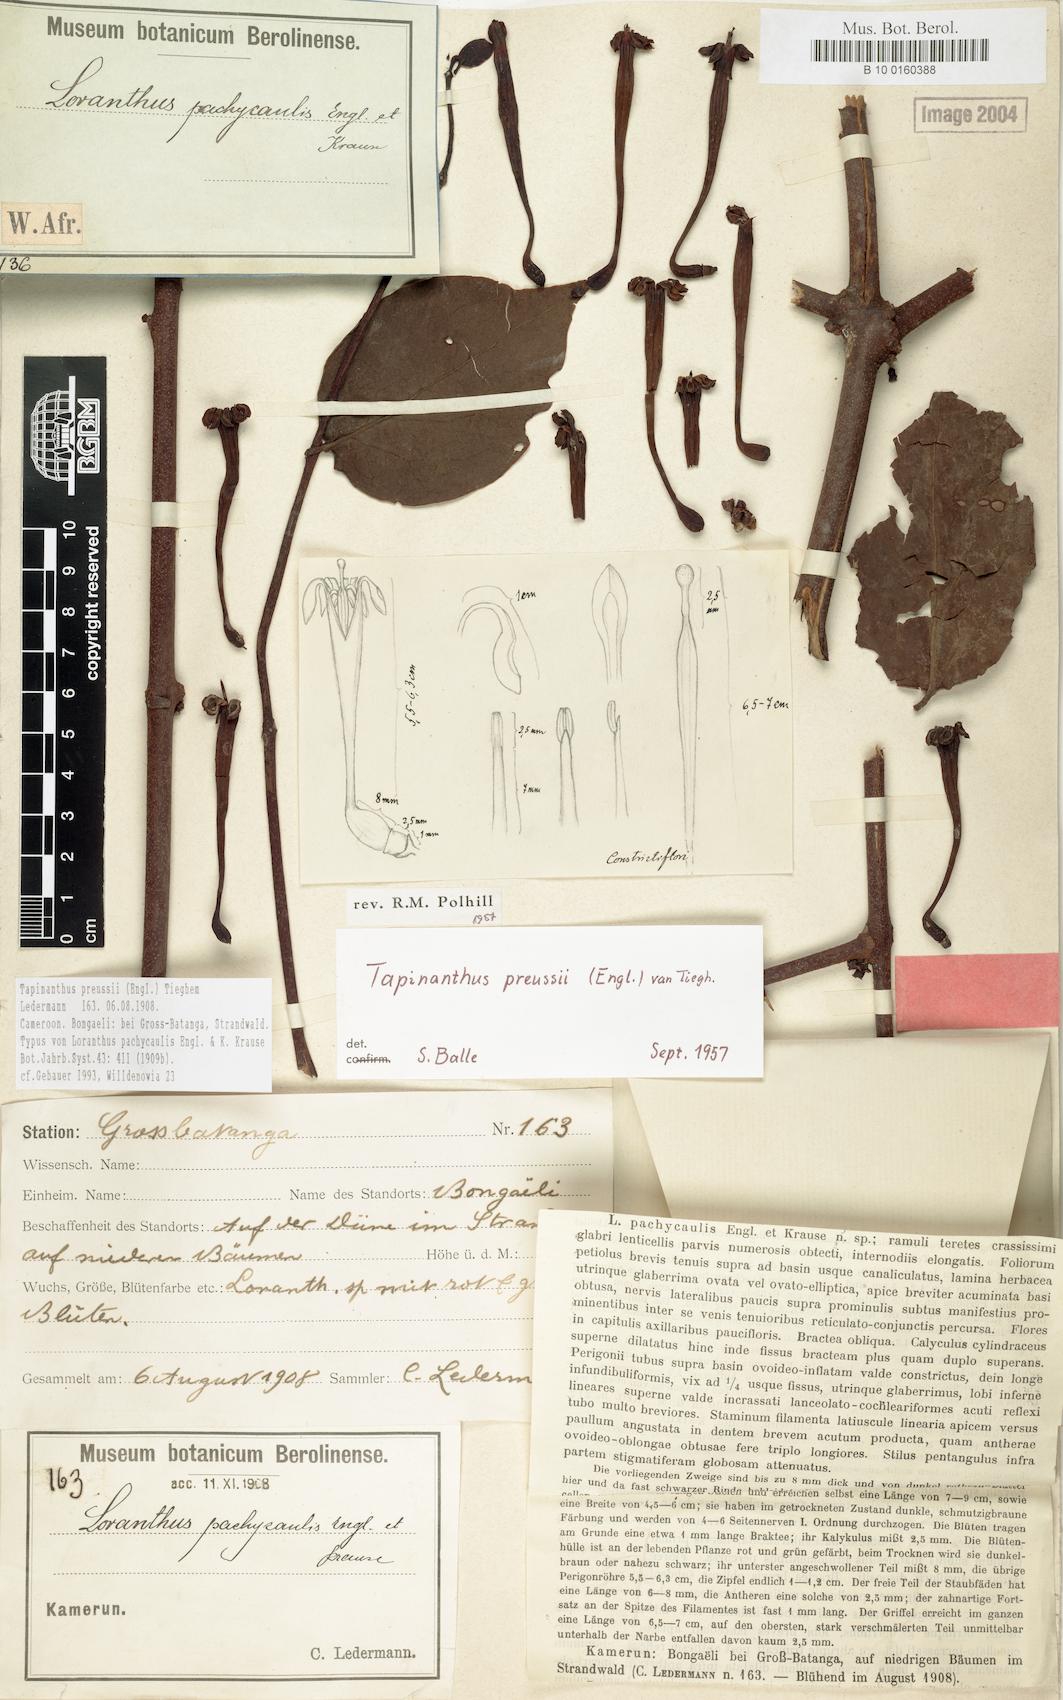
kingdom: Plantae
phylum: Tracheophyta
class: Magnoliopsida
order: Santalales
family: Loranthaceae
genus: Tapinanthus
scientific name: Tapinanthus preussii
